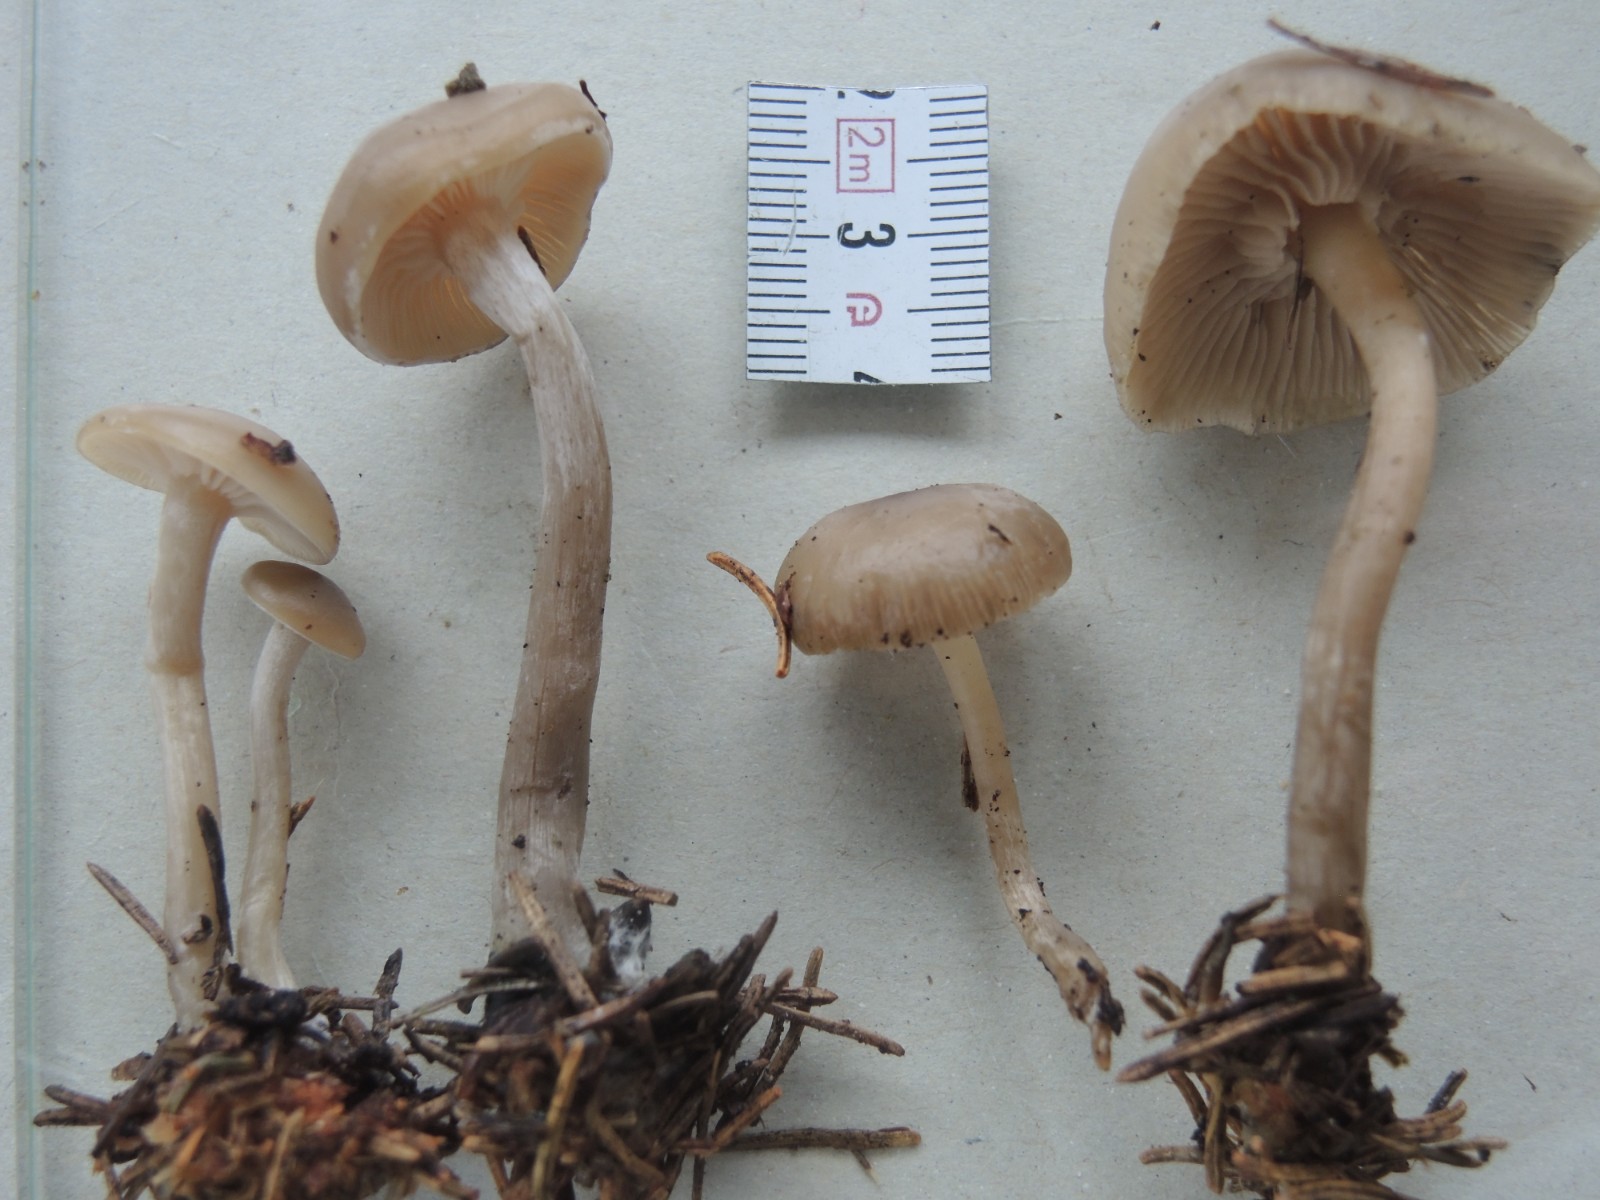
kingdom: Fungi
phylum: Basidiomycota
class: Agaricomycetes
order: Agaricales
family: Tricholomataceae
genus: Clitocybe
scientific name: Clitocybe metachroa
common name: grå tragthat
